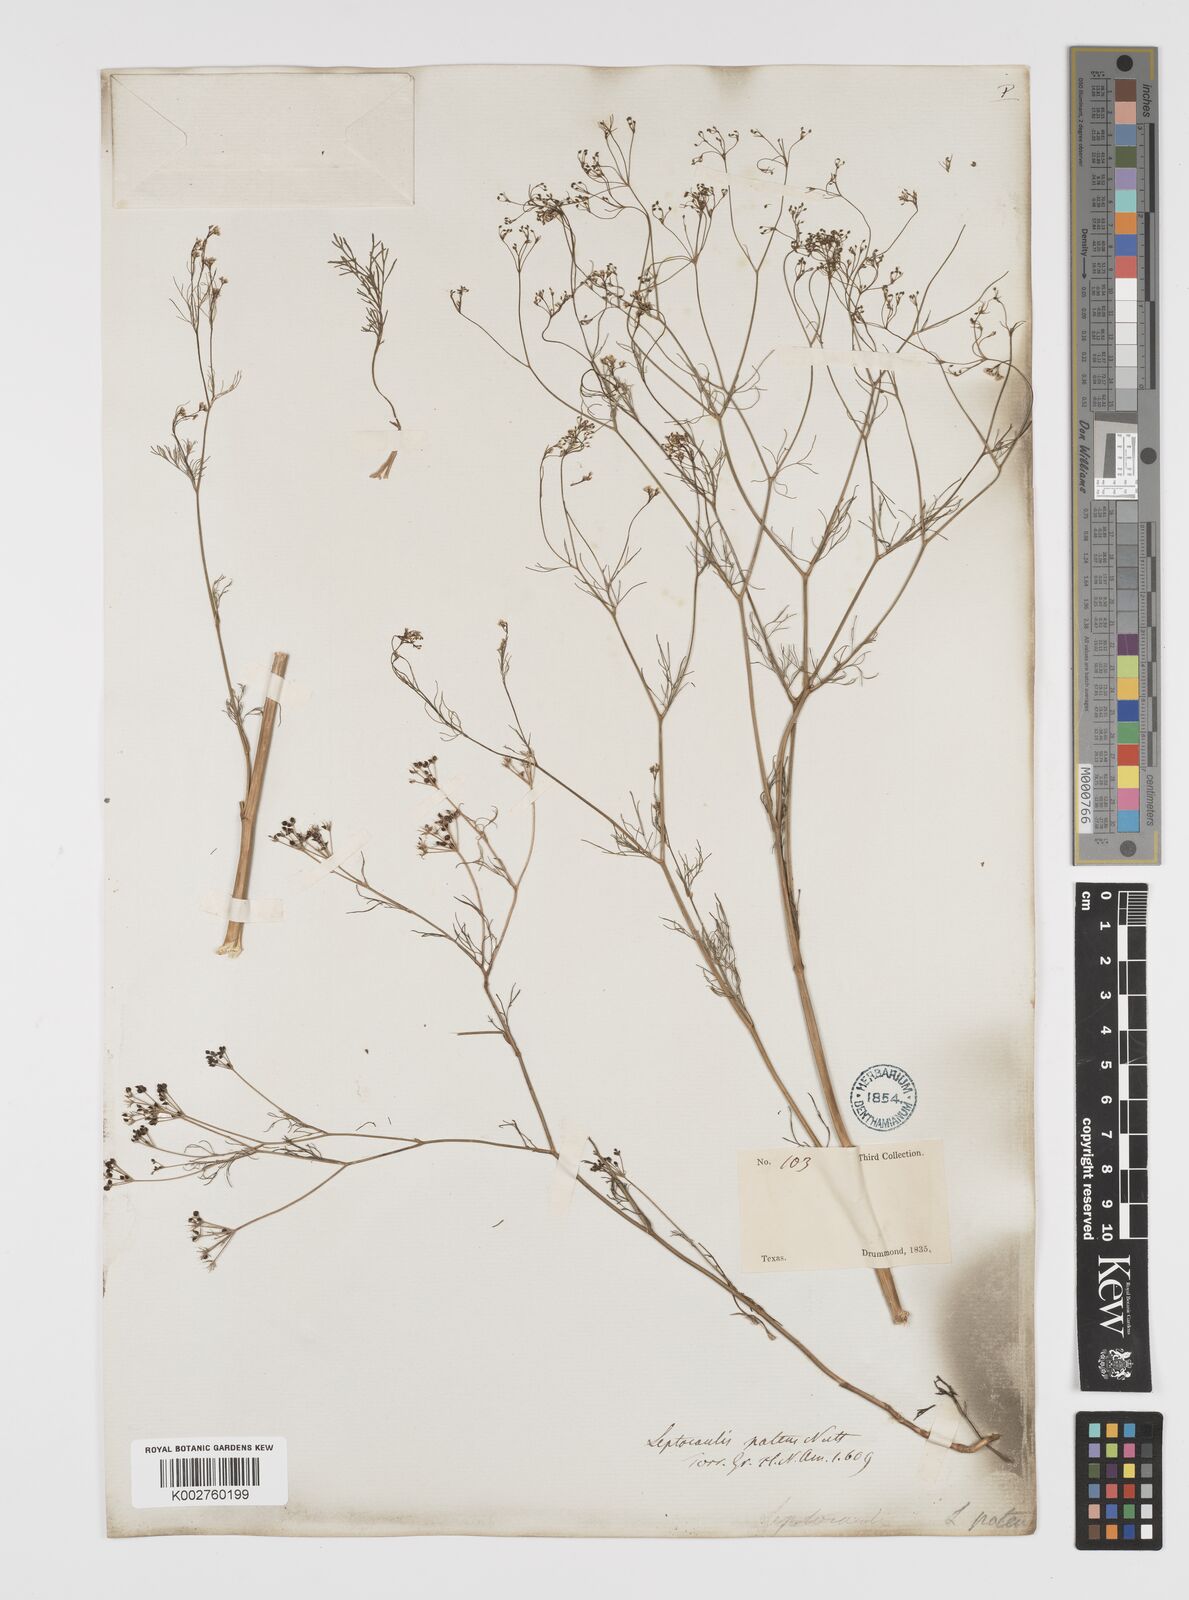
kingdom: Plantae
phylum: Tracheophyta
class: Magnoliopsida
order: Apiales
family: Apiaceae
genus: Spermolepis
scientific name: Spermolepis inermis
